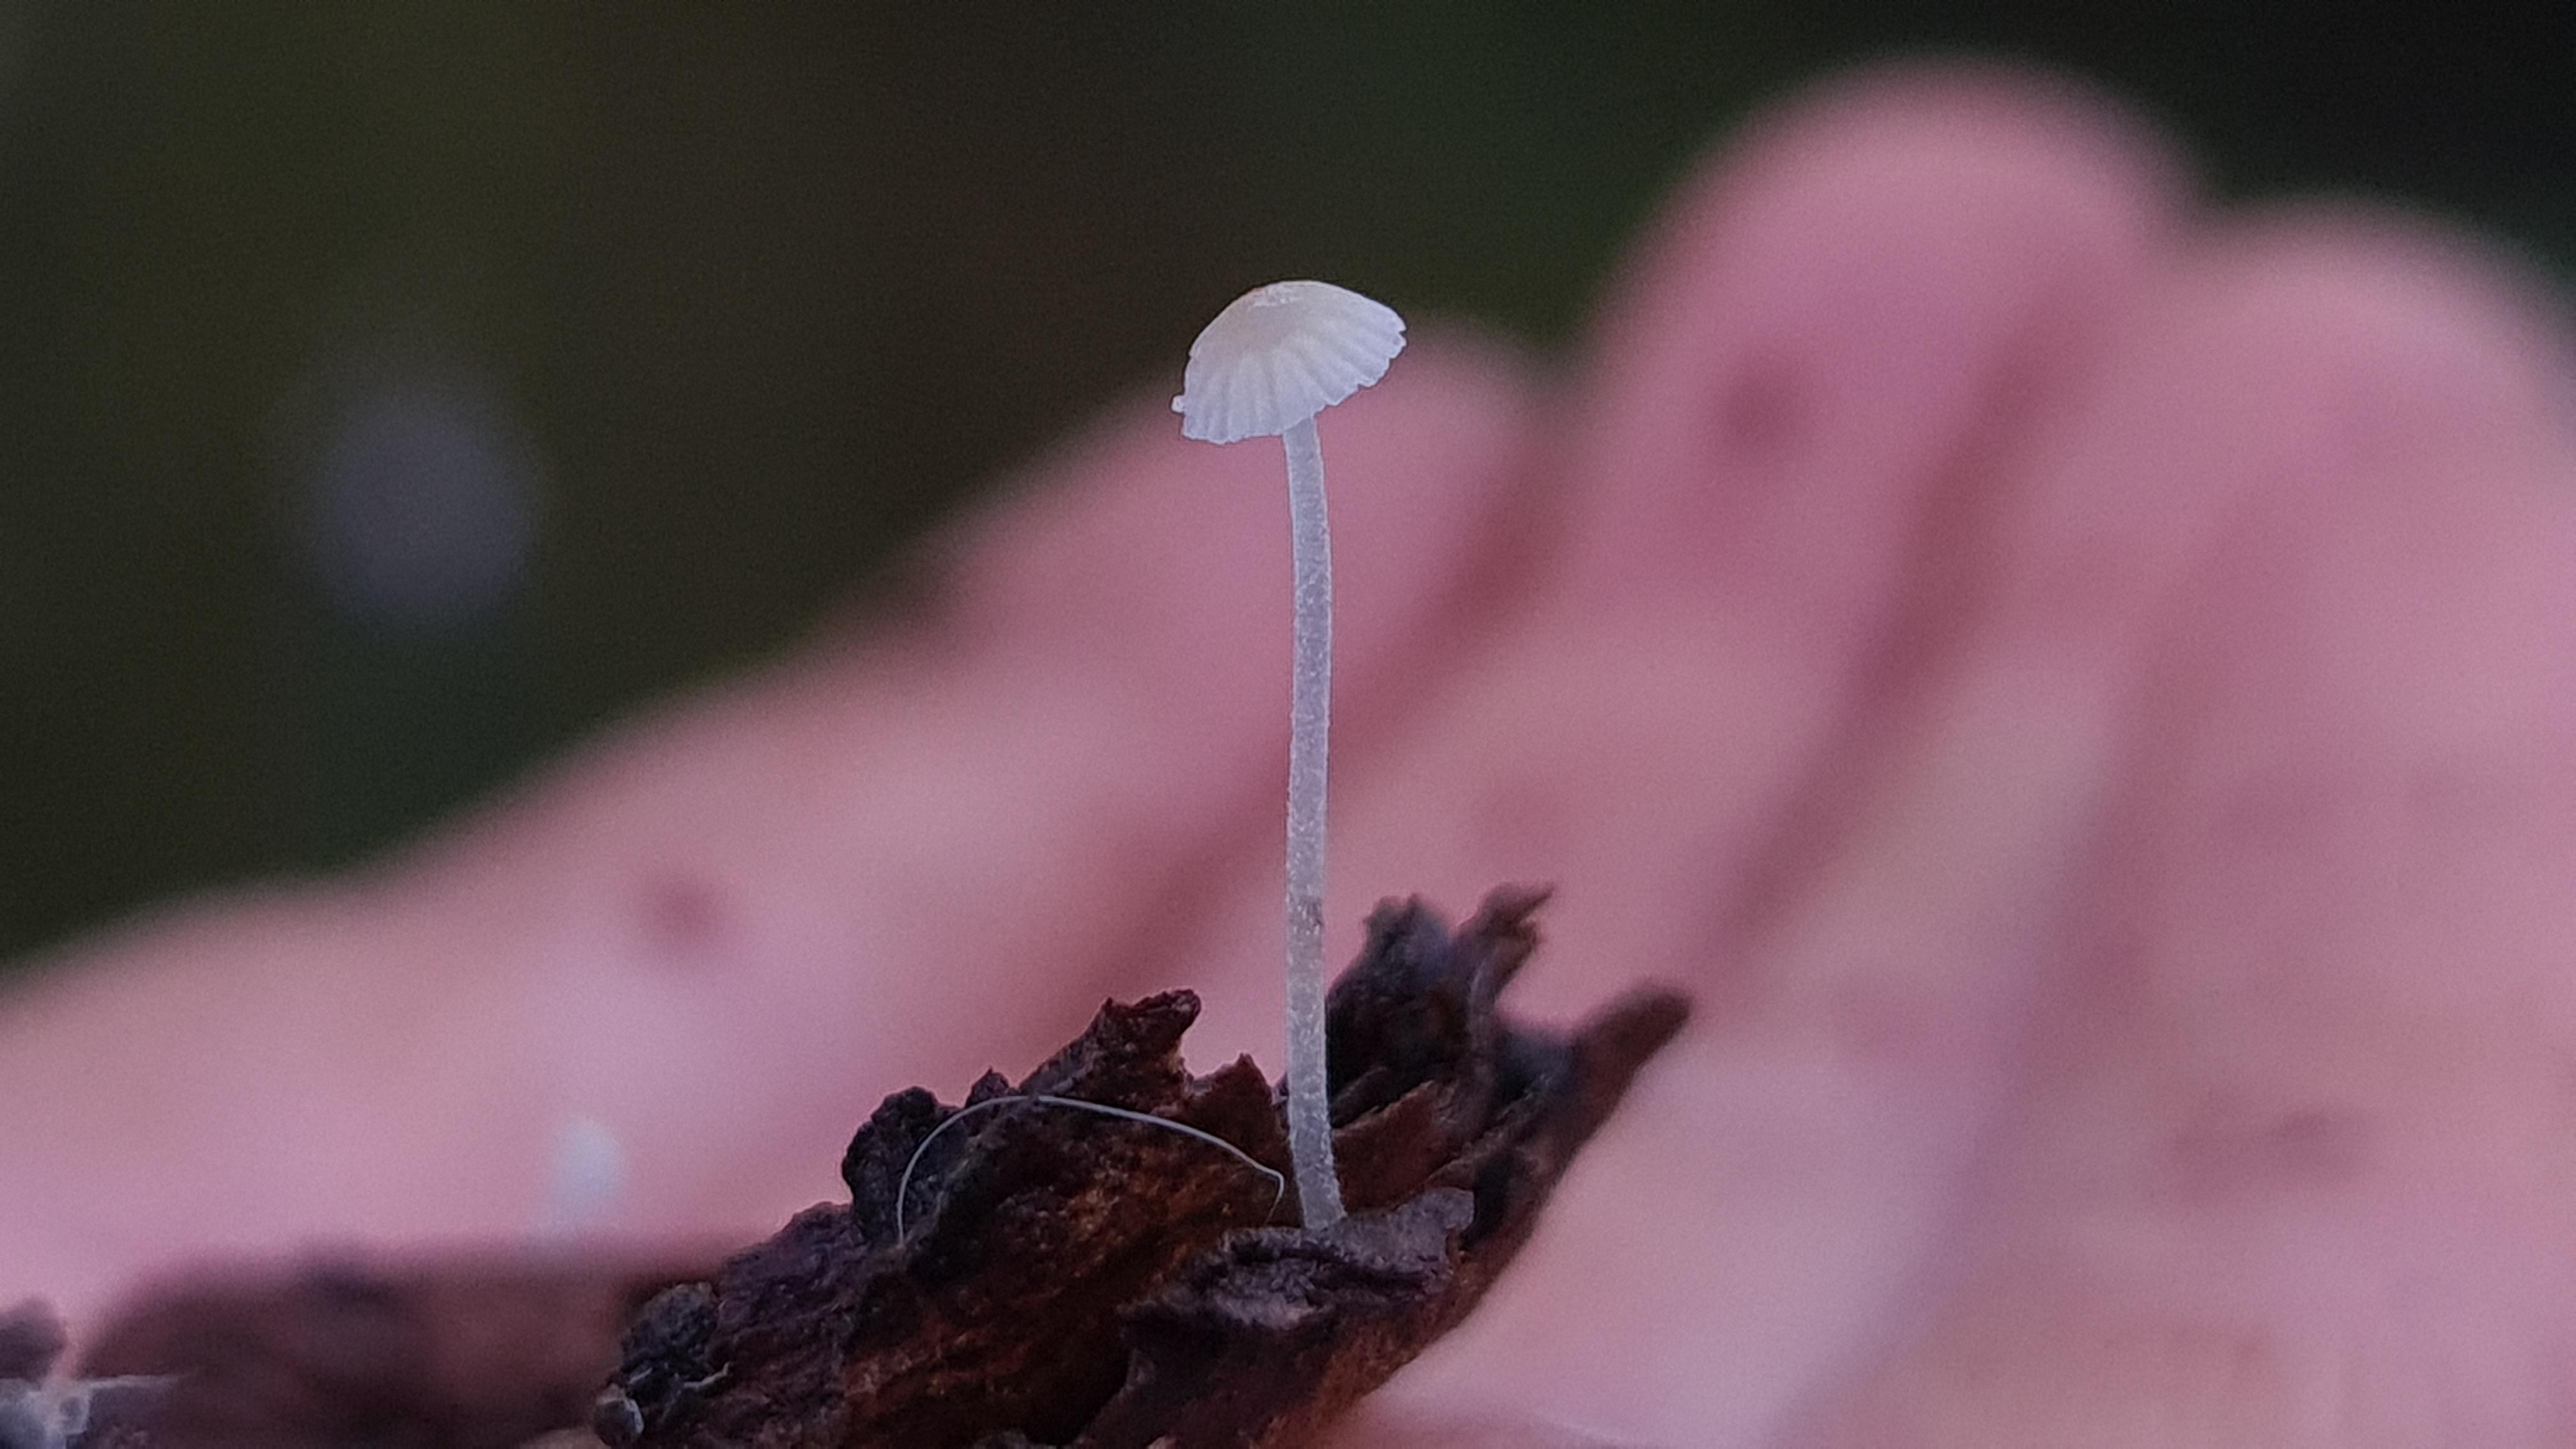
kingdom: Fungi
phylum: Basidiomycota
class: Agaricomycetes
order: Agaricales
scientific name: Agaricales
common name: champignonordenen
